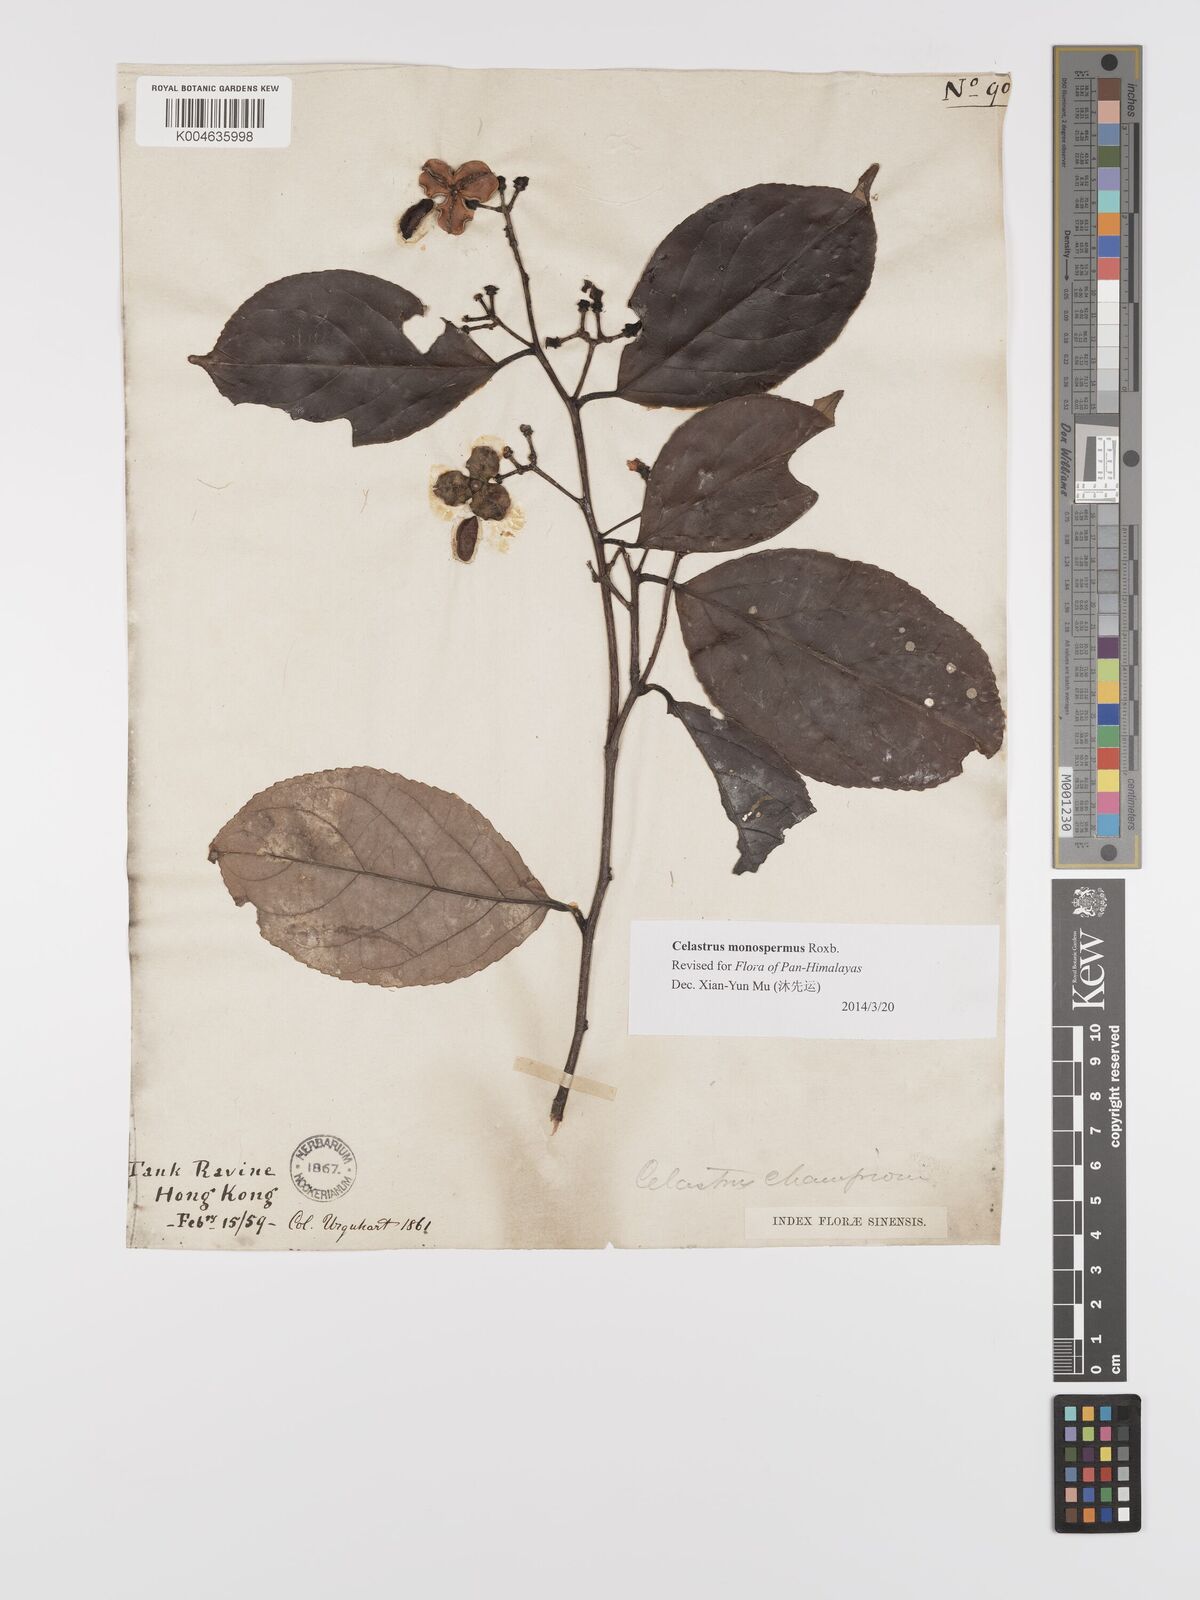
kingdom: Plantae
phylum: Tracheophyta
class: Magnoliopsida
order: Celastrales
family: Celastraceae
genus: Celastrus
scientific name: Celastrus monospermus
